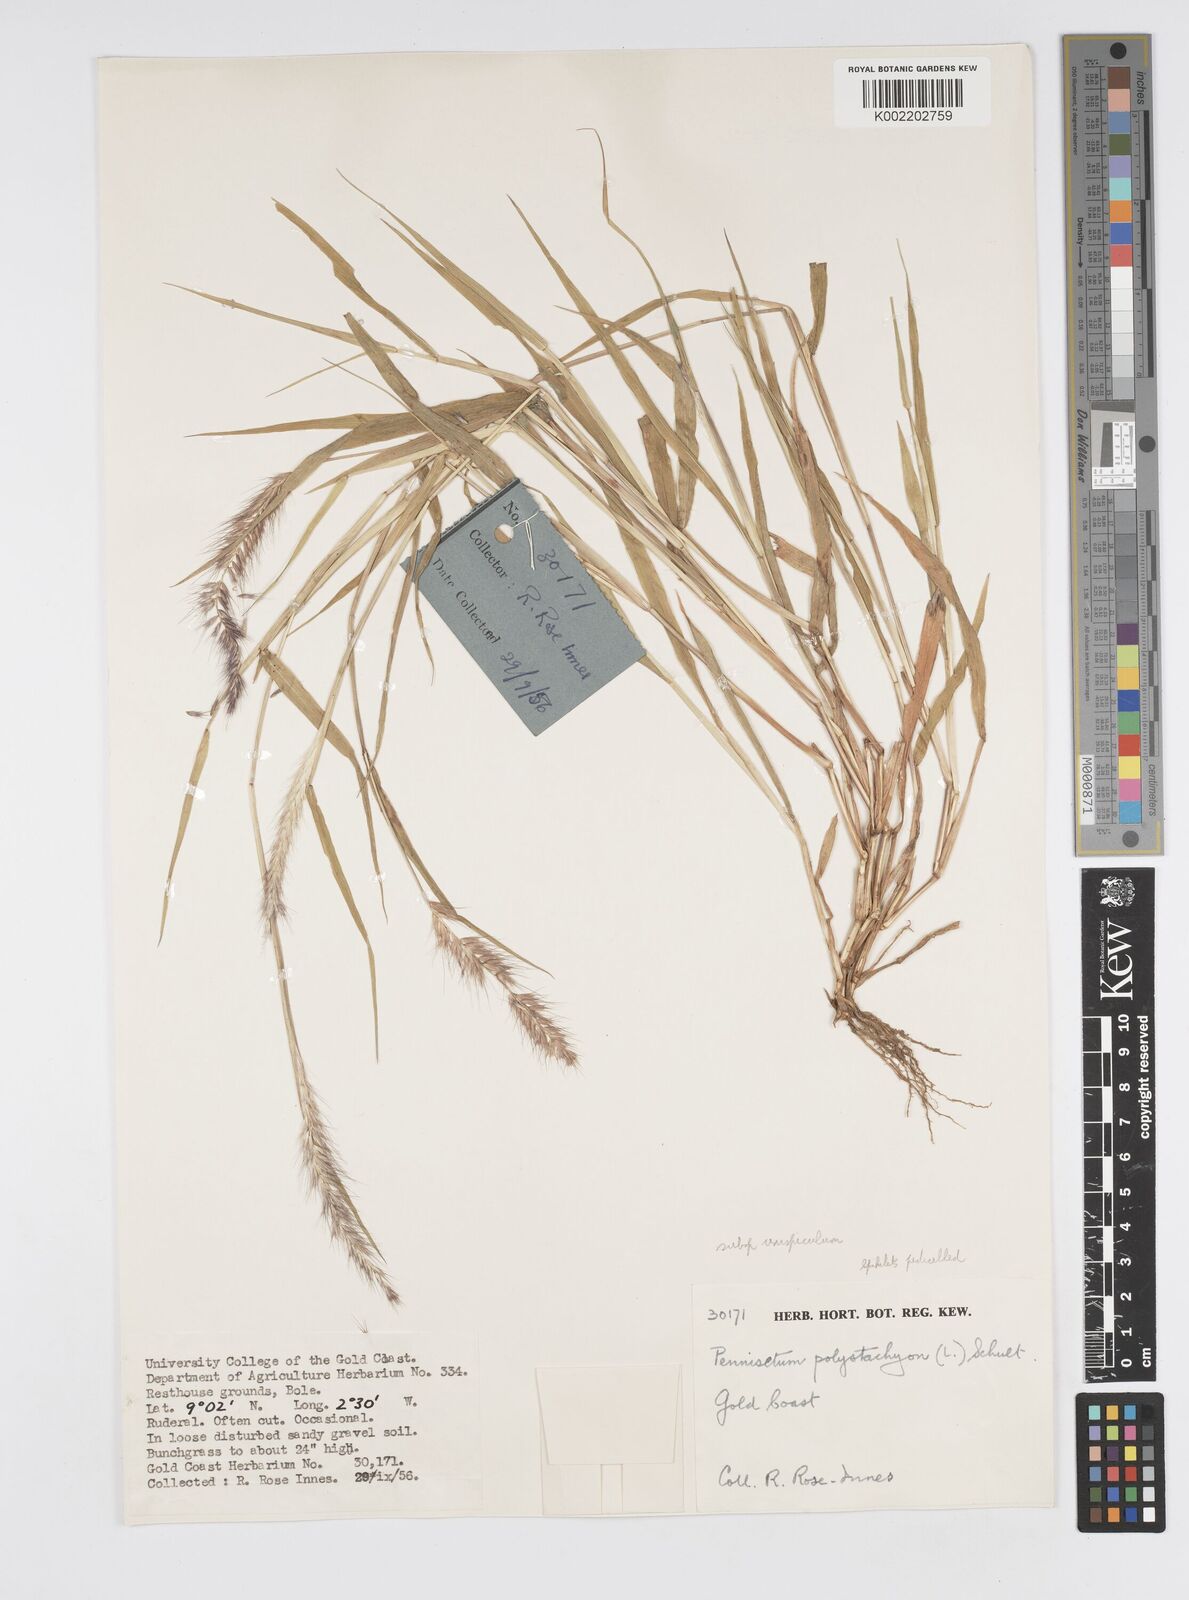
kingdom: Plantae
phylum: Tracheophyta
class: Liliopsida
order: Poales
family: Poaceae
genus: Cenchrus
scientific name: Cenchrus pedicellatus
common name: Hairy fountain grass
